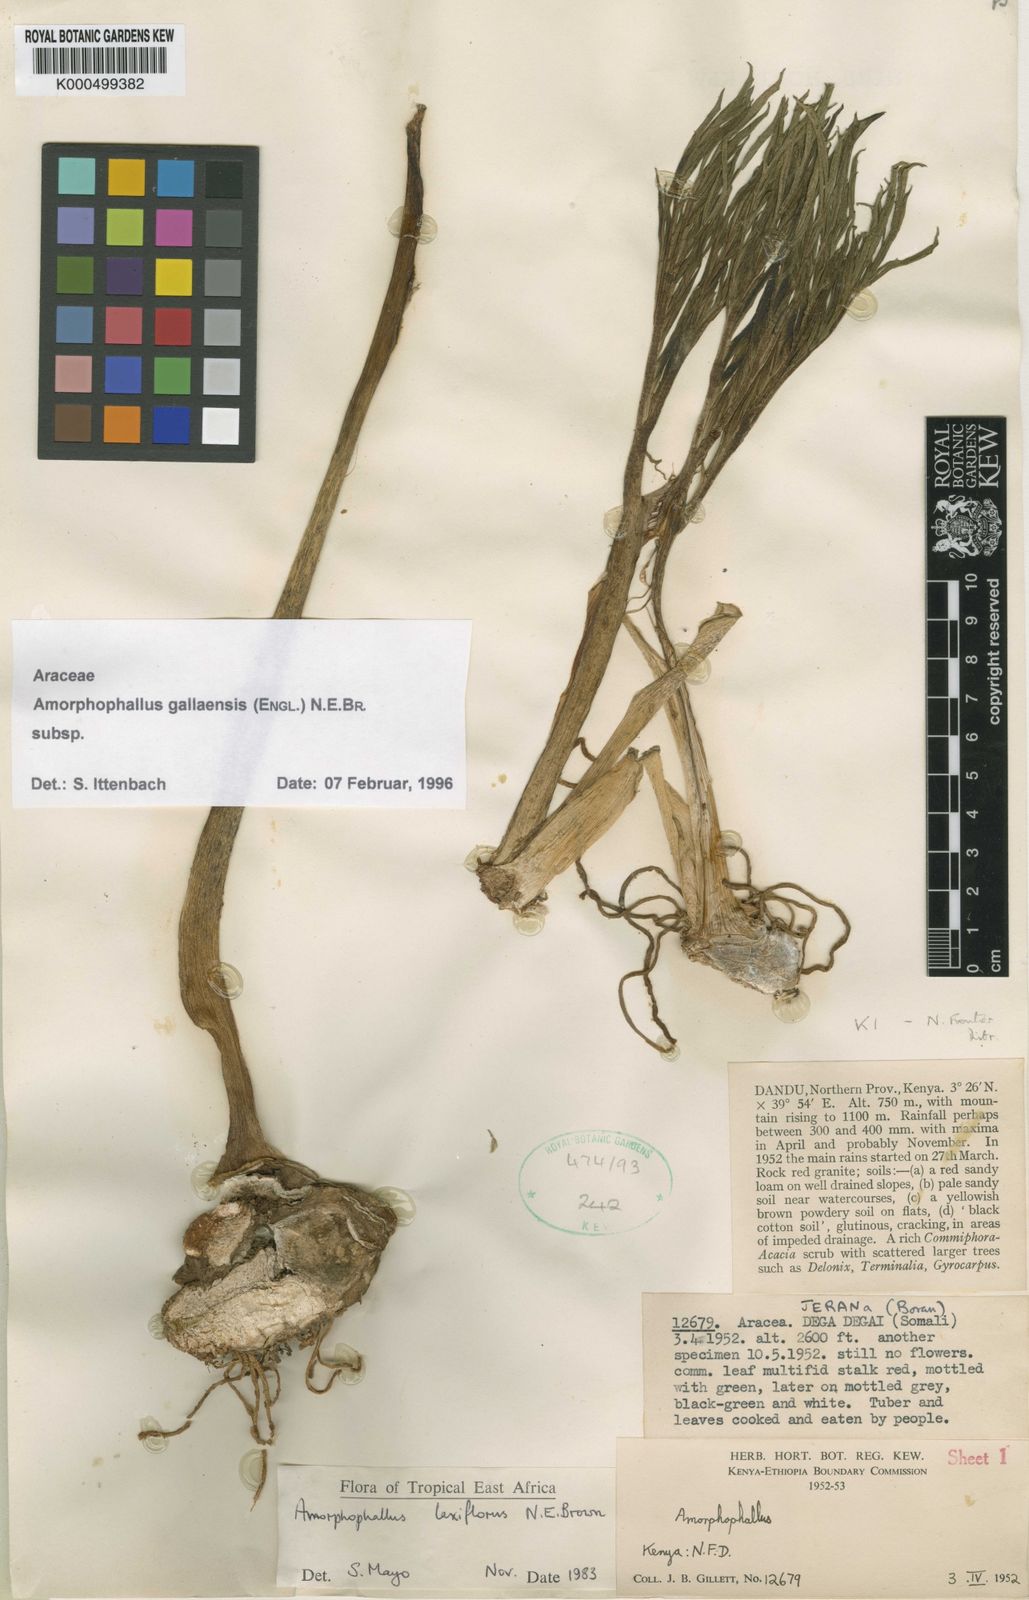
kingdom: Plantae
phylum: Tracheophyta
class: Liliopsida
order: Alismatales
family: Araceae
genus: Amorphophallus
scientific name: Amorphophallus gallaensis
